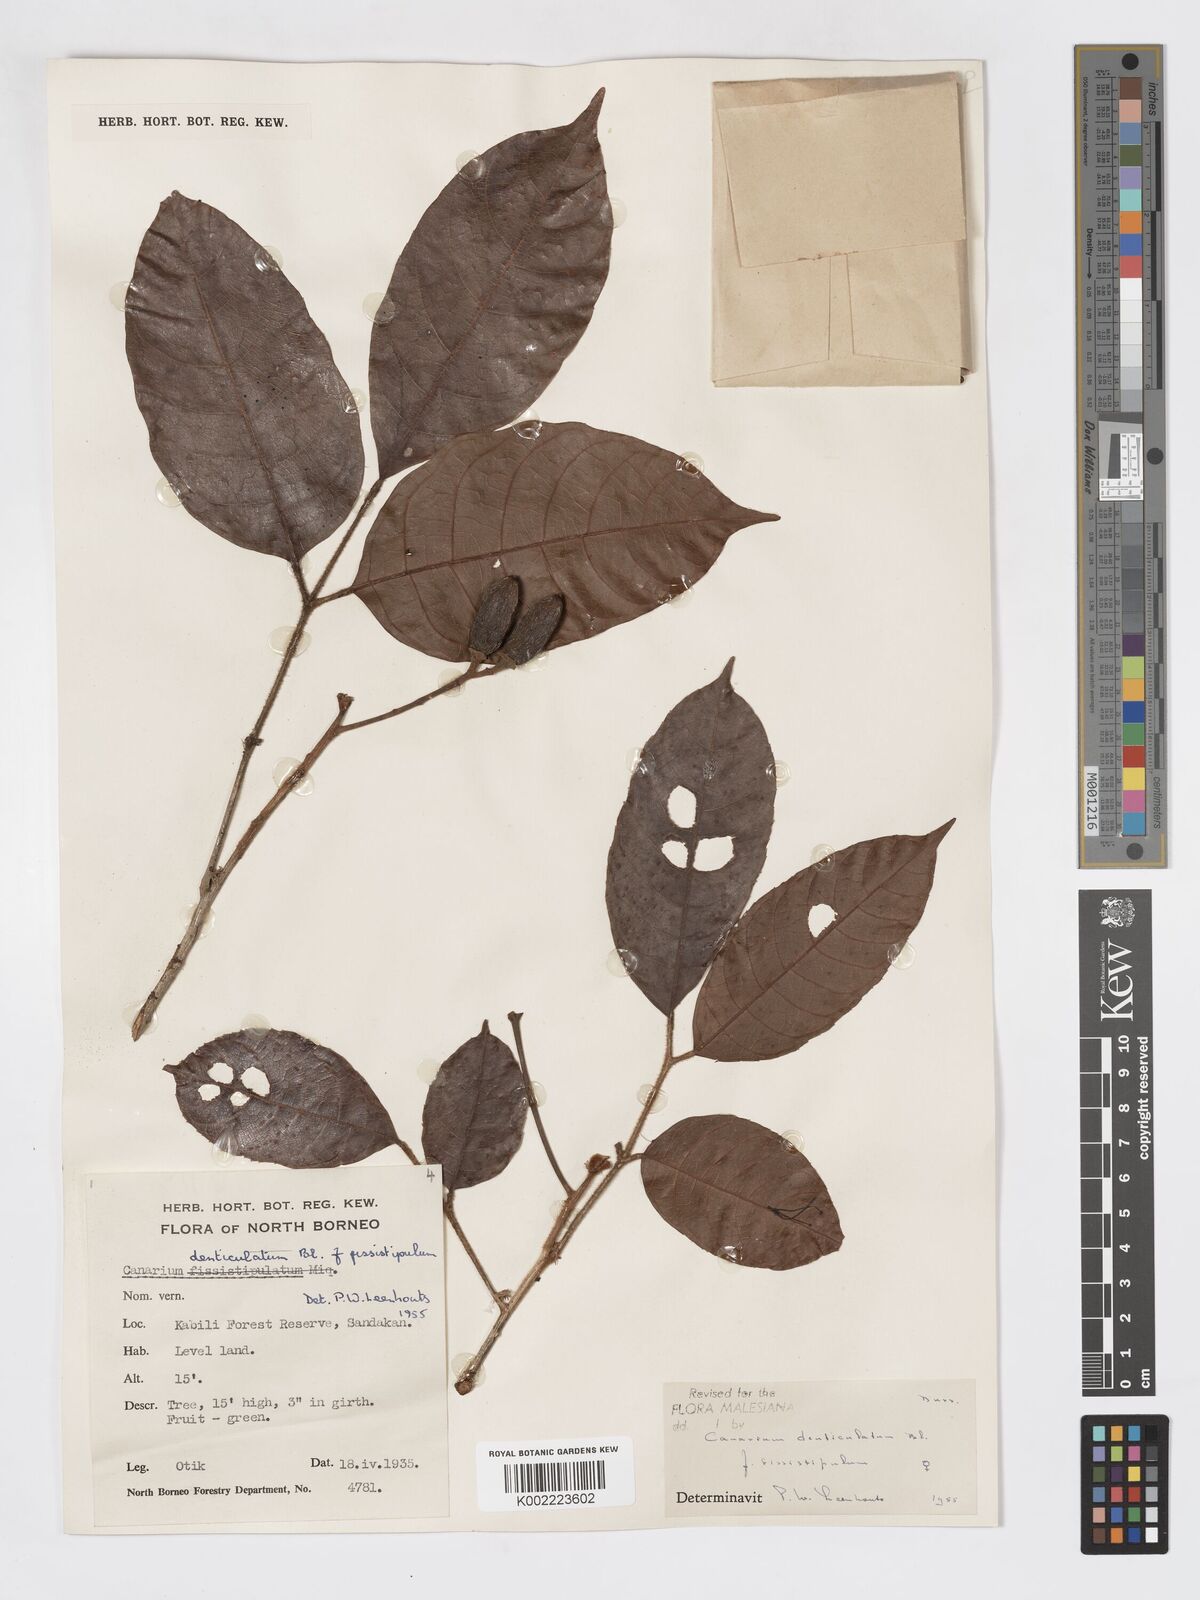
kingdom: Plantae
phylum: Tracheophyta
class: Magnoliopsida
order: Sapindales
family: Burseraceae
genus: Canarium
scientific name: Canarium denticulatum
